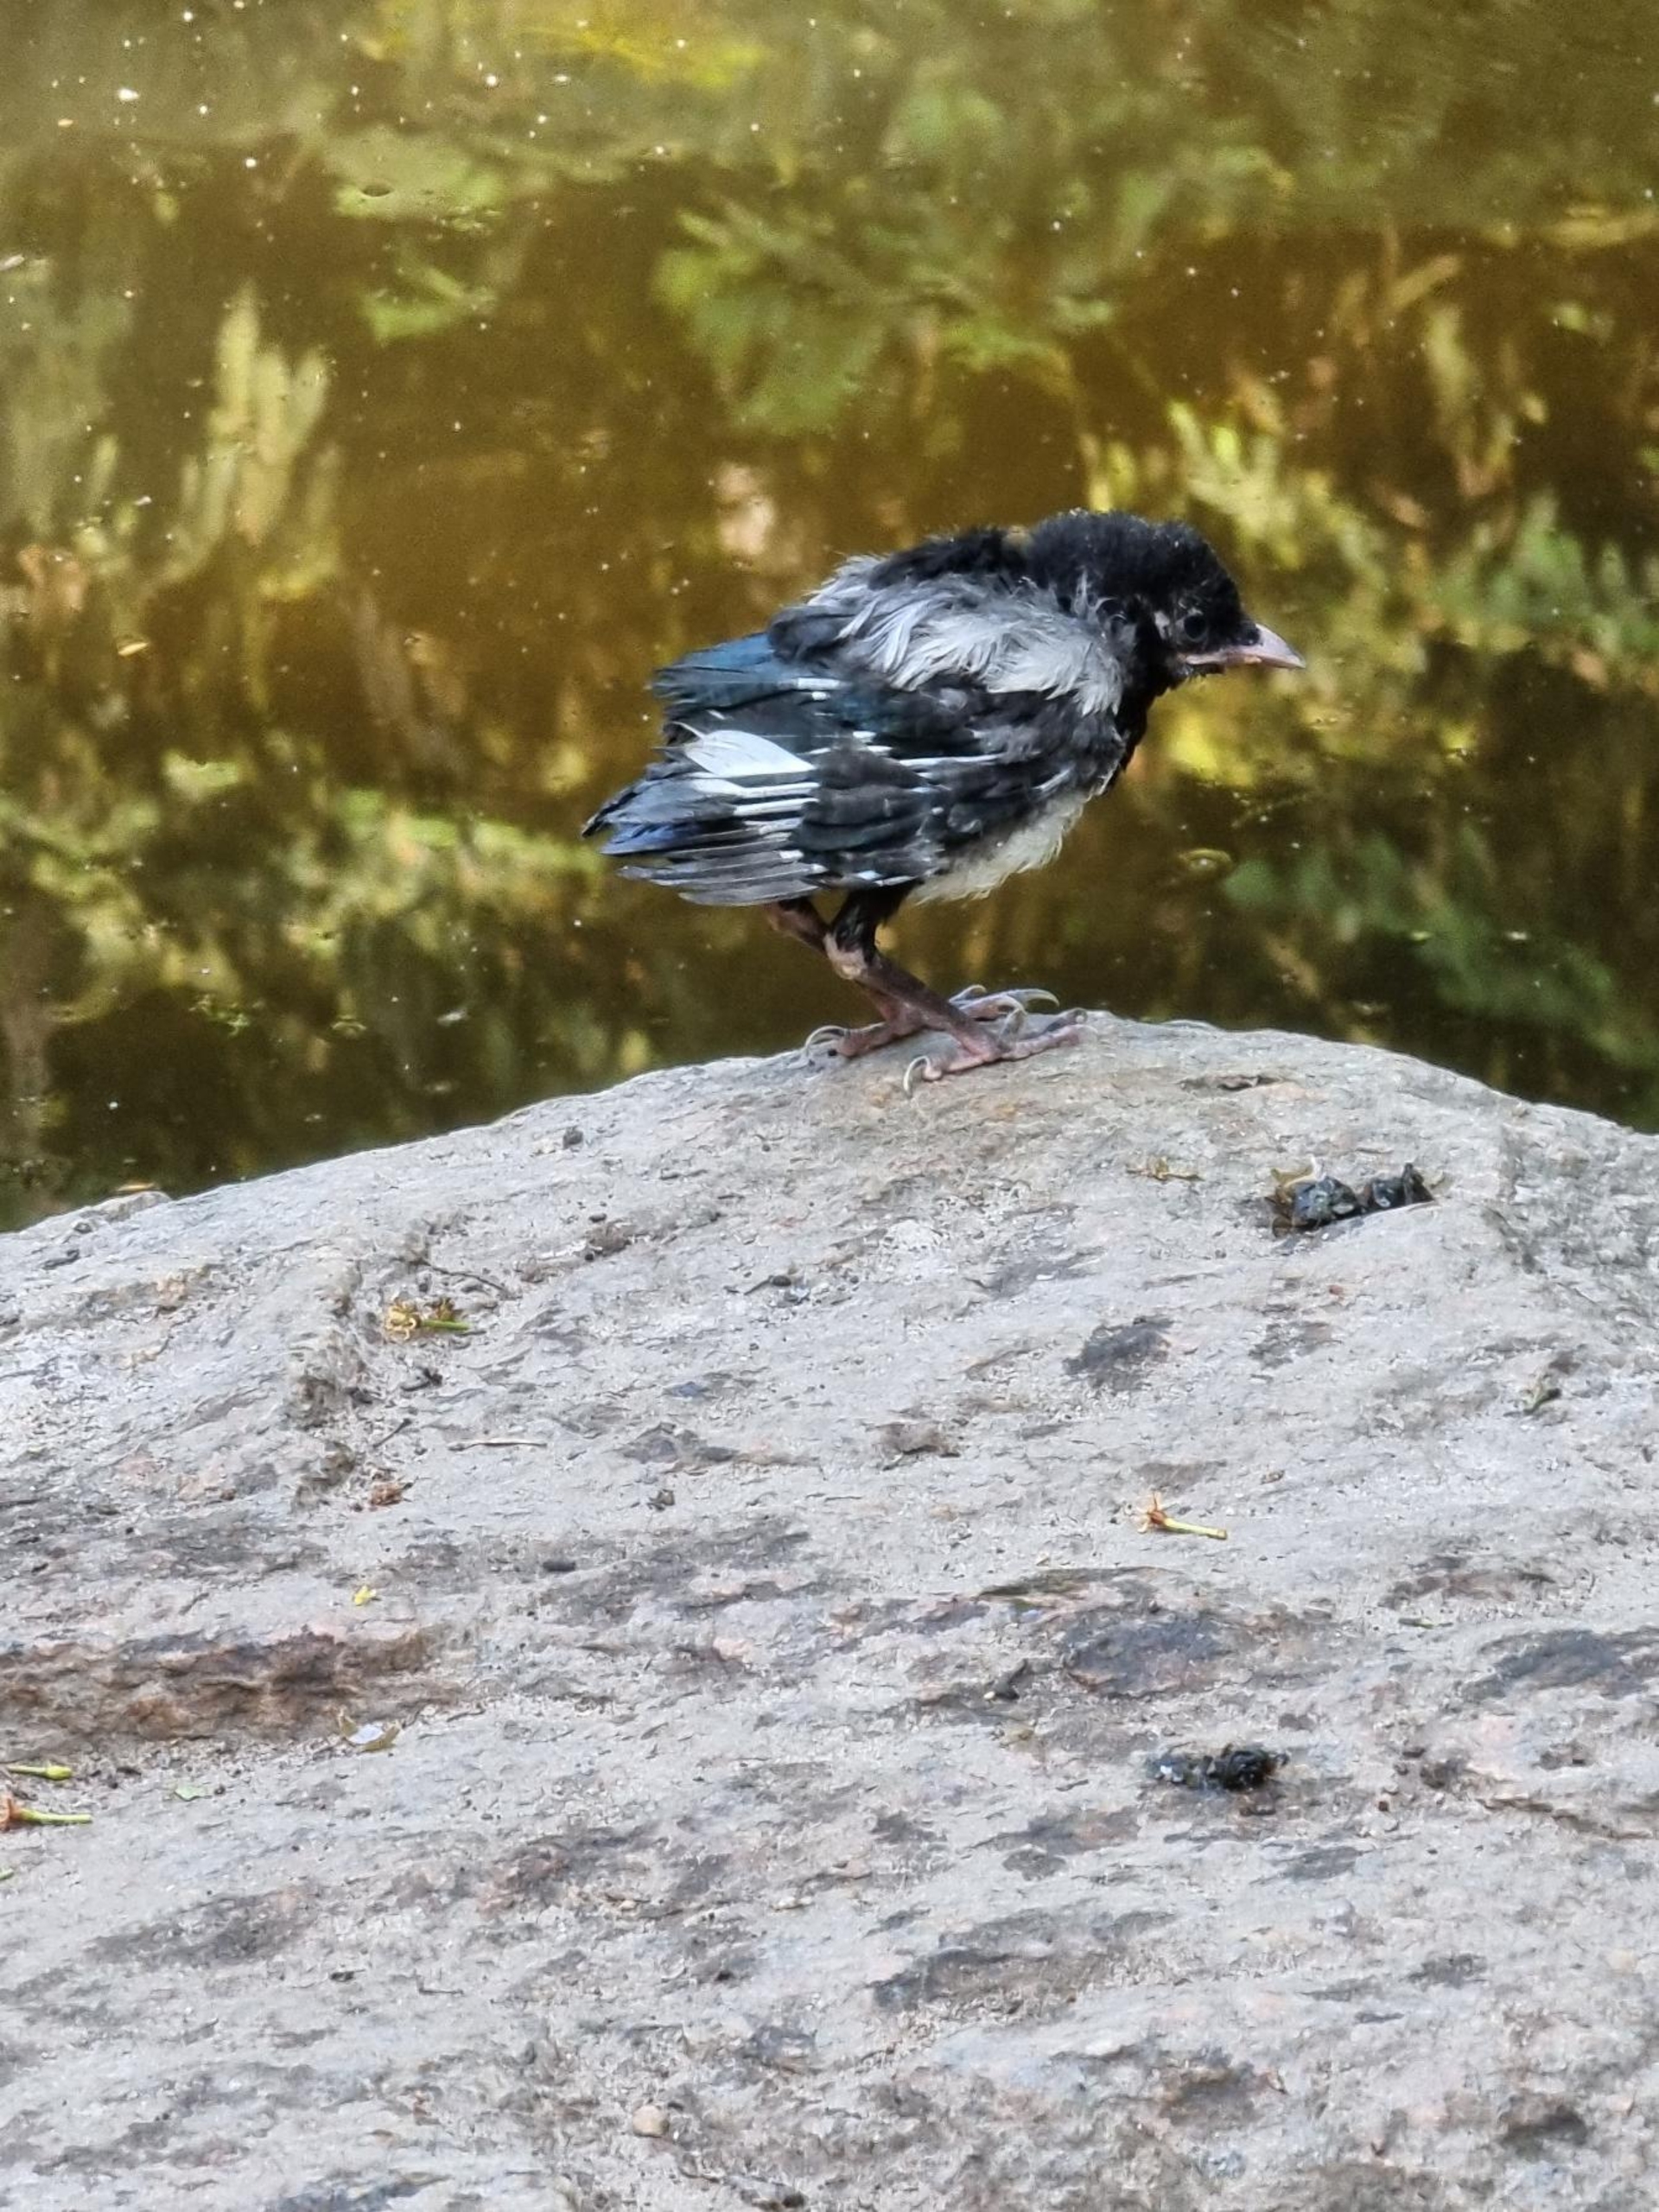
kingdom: Animalia
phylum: Chordata
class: Aves
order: Passeriformes
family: Corvidae
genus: Pica
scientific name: Pica pica
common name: Husskade
